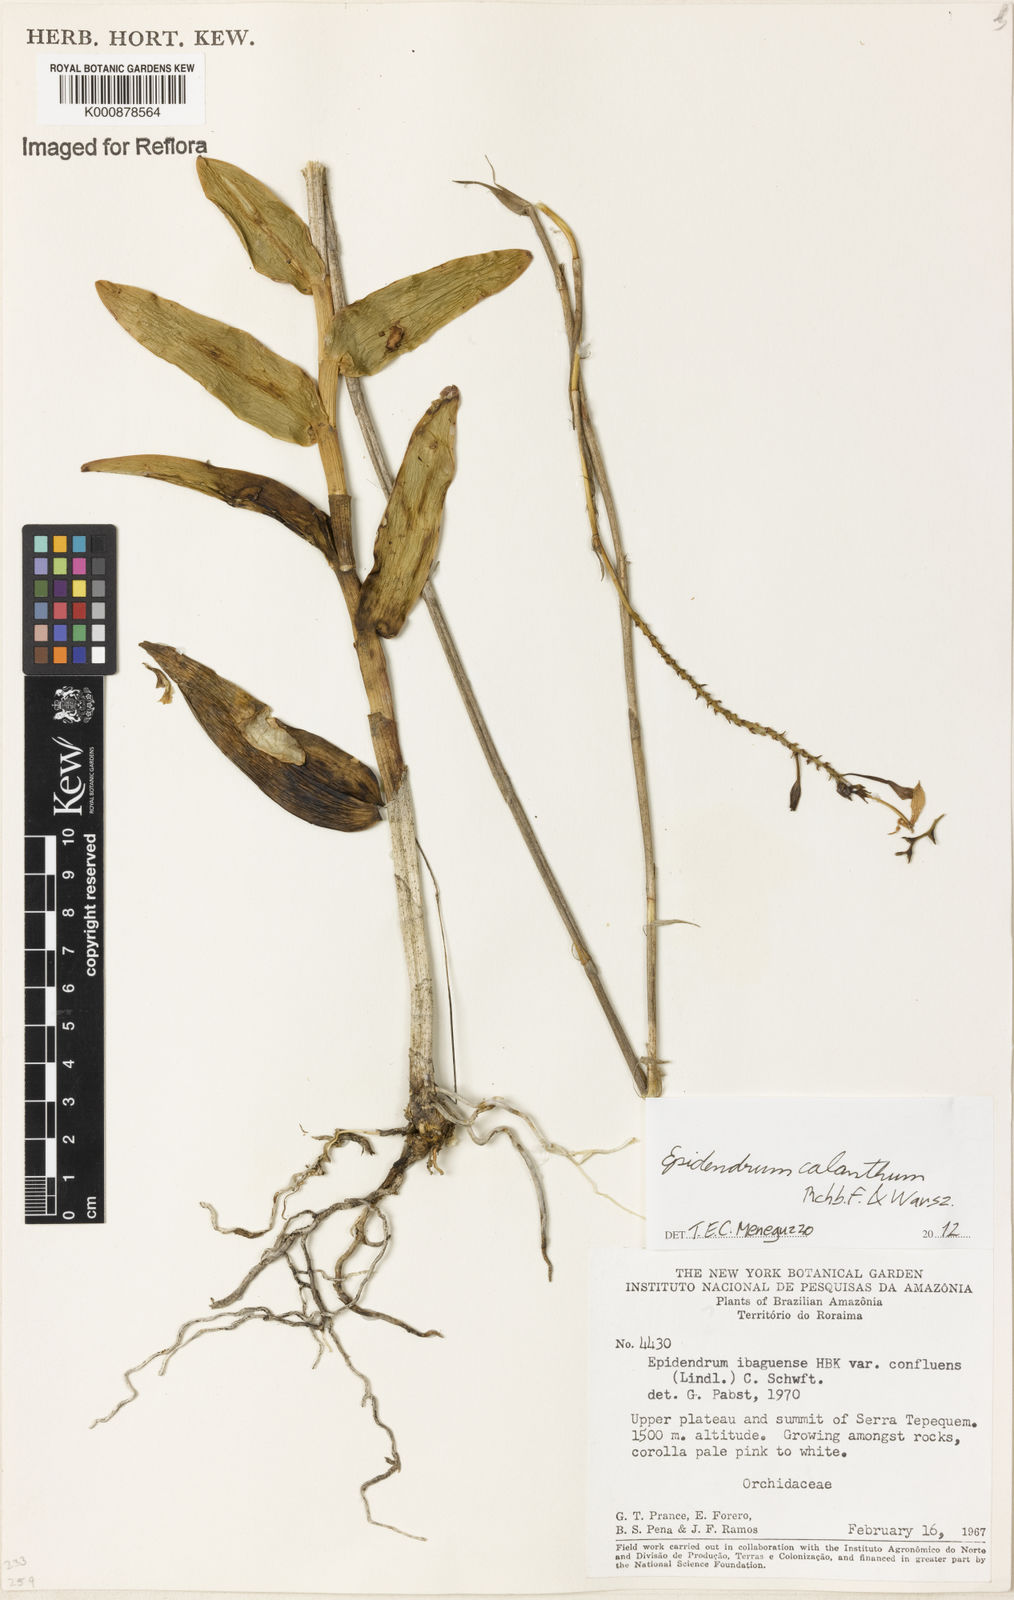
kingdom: Plantae
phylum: Tracheophyta
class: Liliopsida
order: Asparagales
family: Orchidaceae
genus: Epidendrum
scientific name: Epidendrum calanthum
